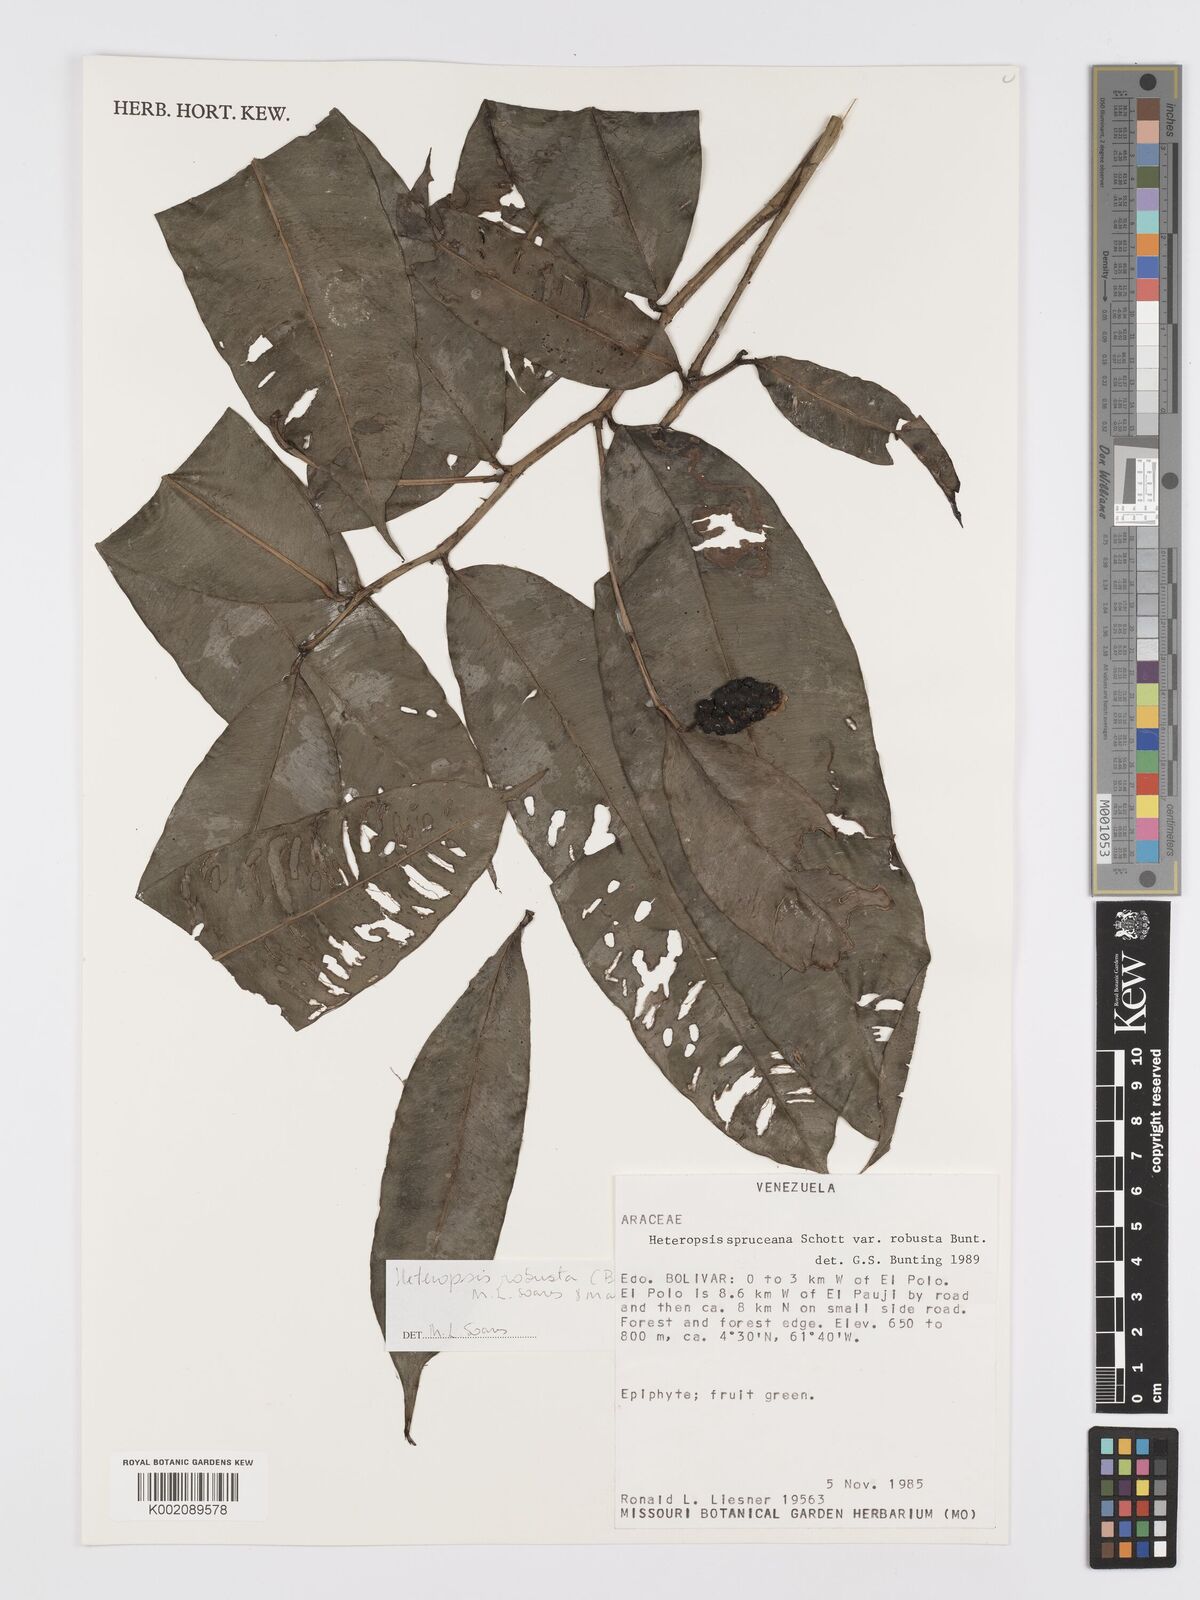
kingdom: Plantae
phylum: Tracheophyta
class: Liliopsida
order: Alismatales
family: Araceae
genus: Heteropsis
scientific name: Heteropsis robusta
